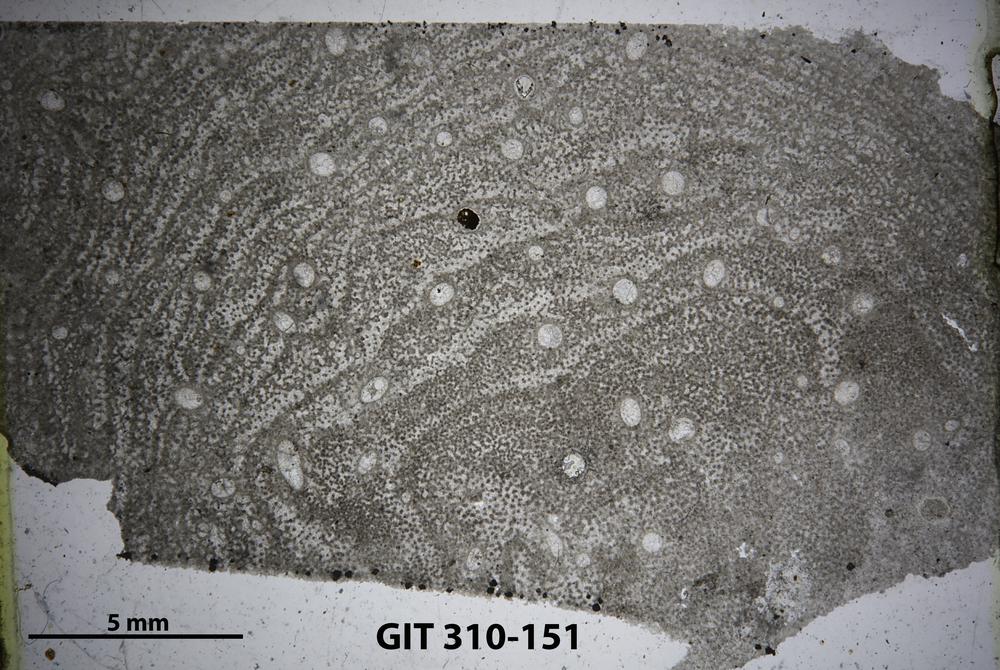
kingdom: Animalia
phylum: Porifera
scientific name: Porifera
